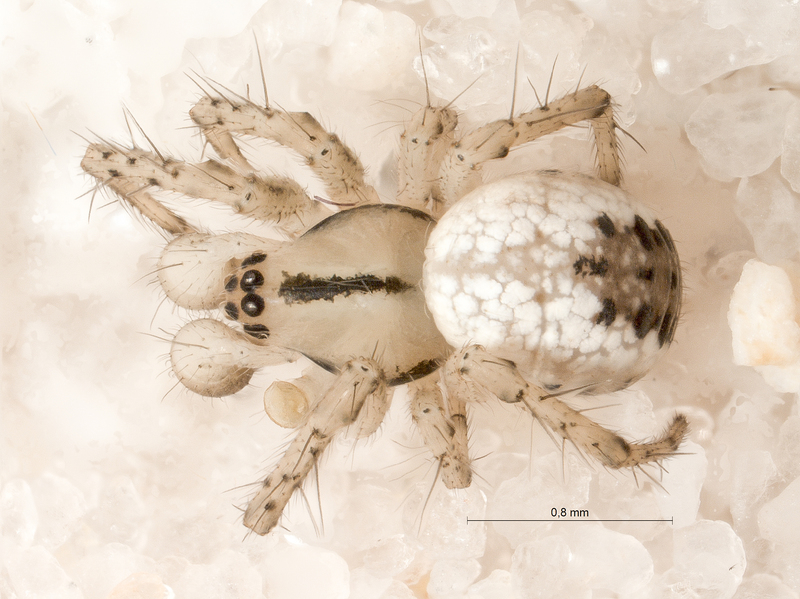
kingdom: Animalia
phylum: Arthropoda
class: Arachnida
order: Araneae
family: Araneidae
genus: Mangora
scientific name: Mangora acalypha
